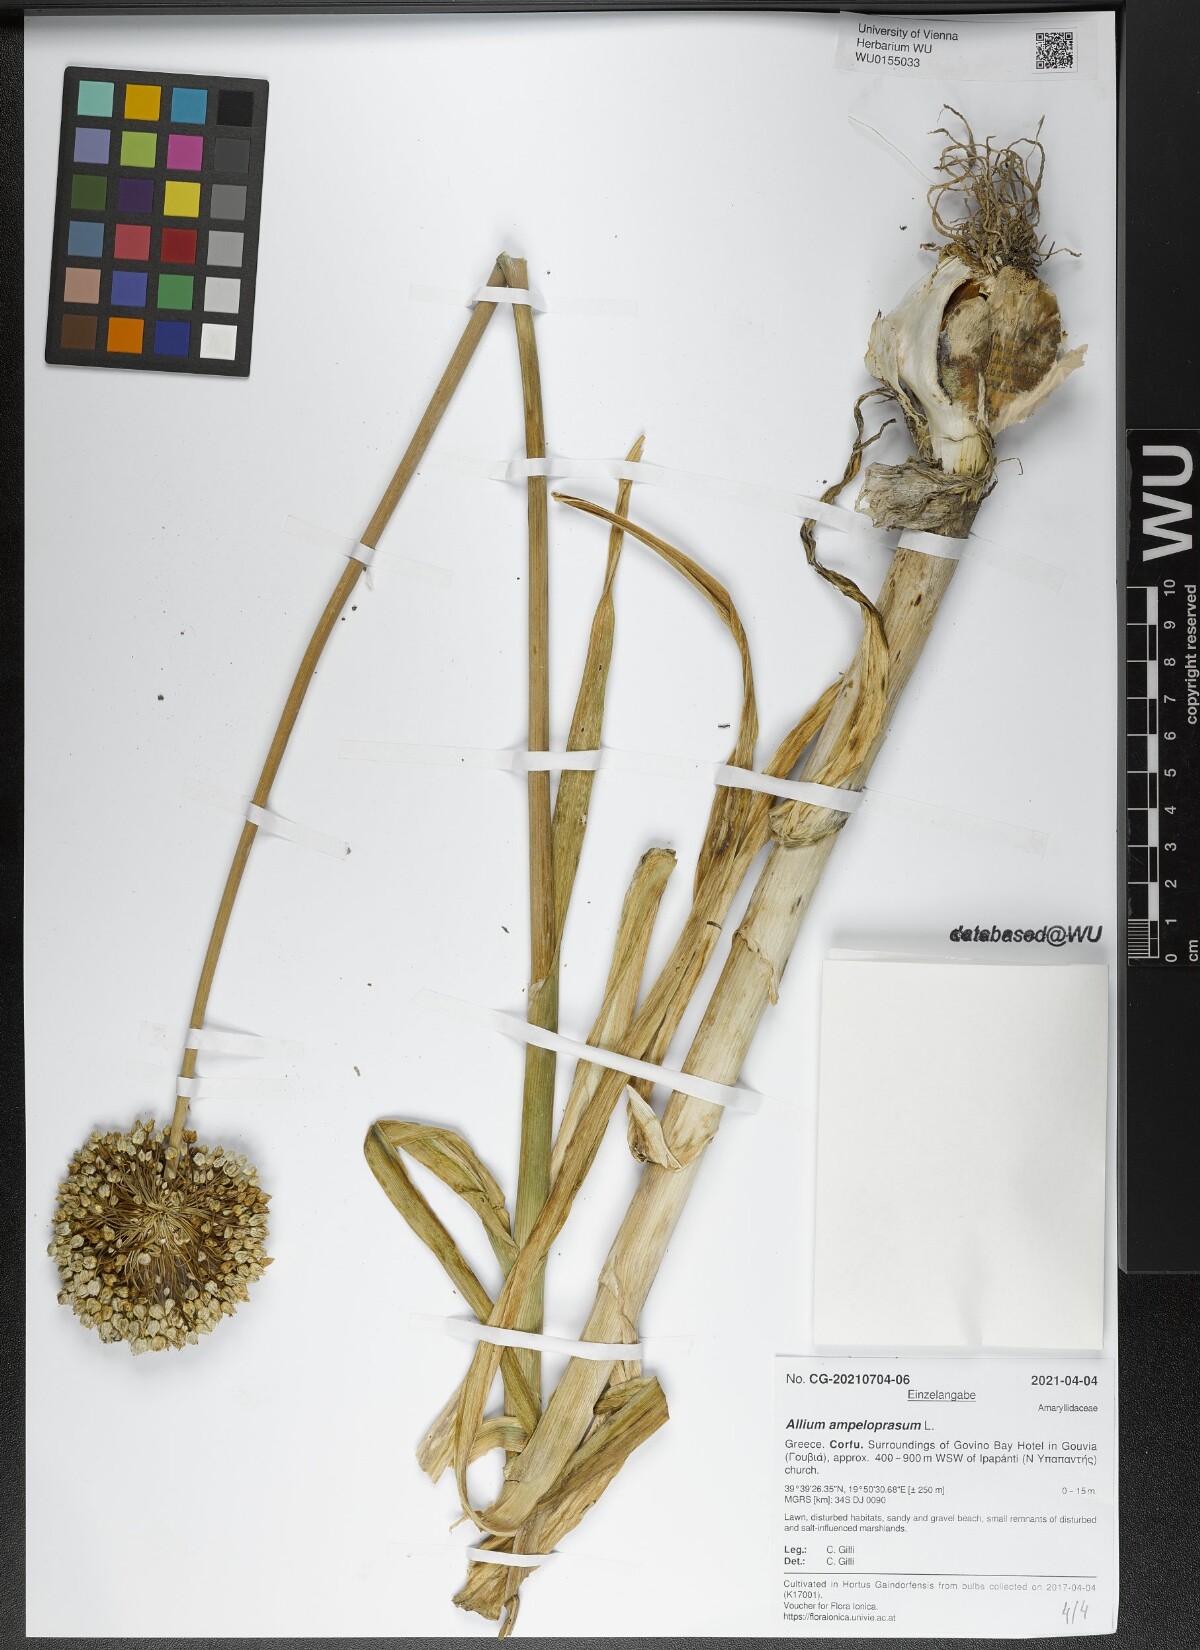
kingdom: Plantae
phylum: Tracheophyta
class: Liliopsida
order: Asparagales
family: Amaryllidaceae
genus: Allium
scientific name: Allium ampeloprasum
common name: Wild leek
